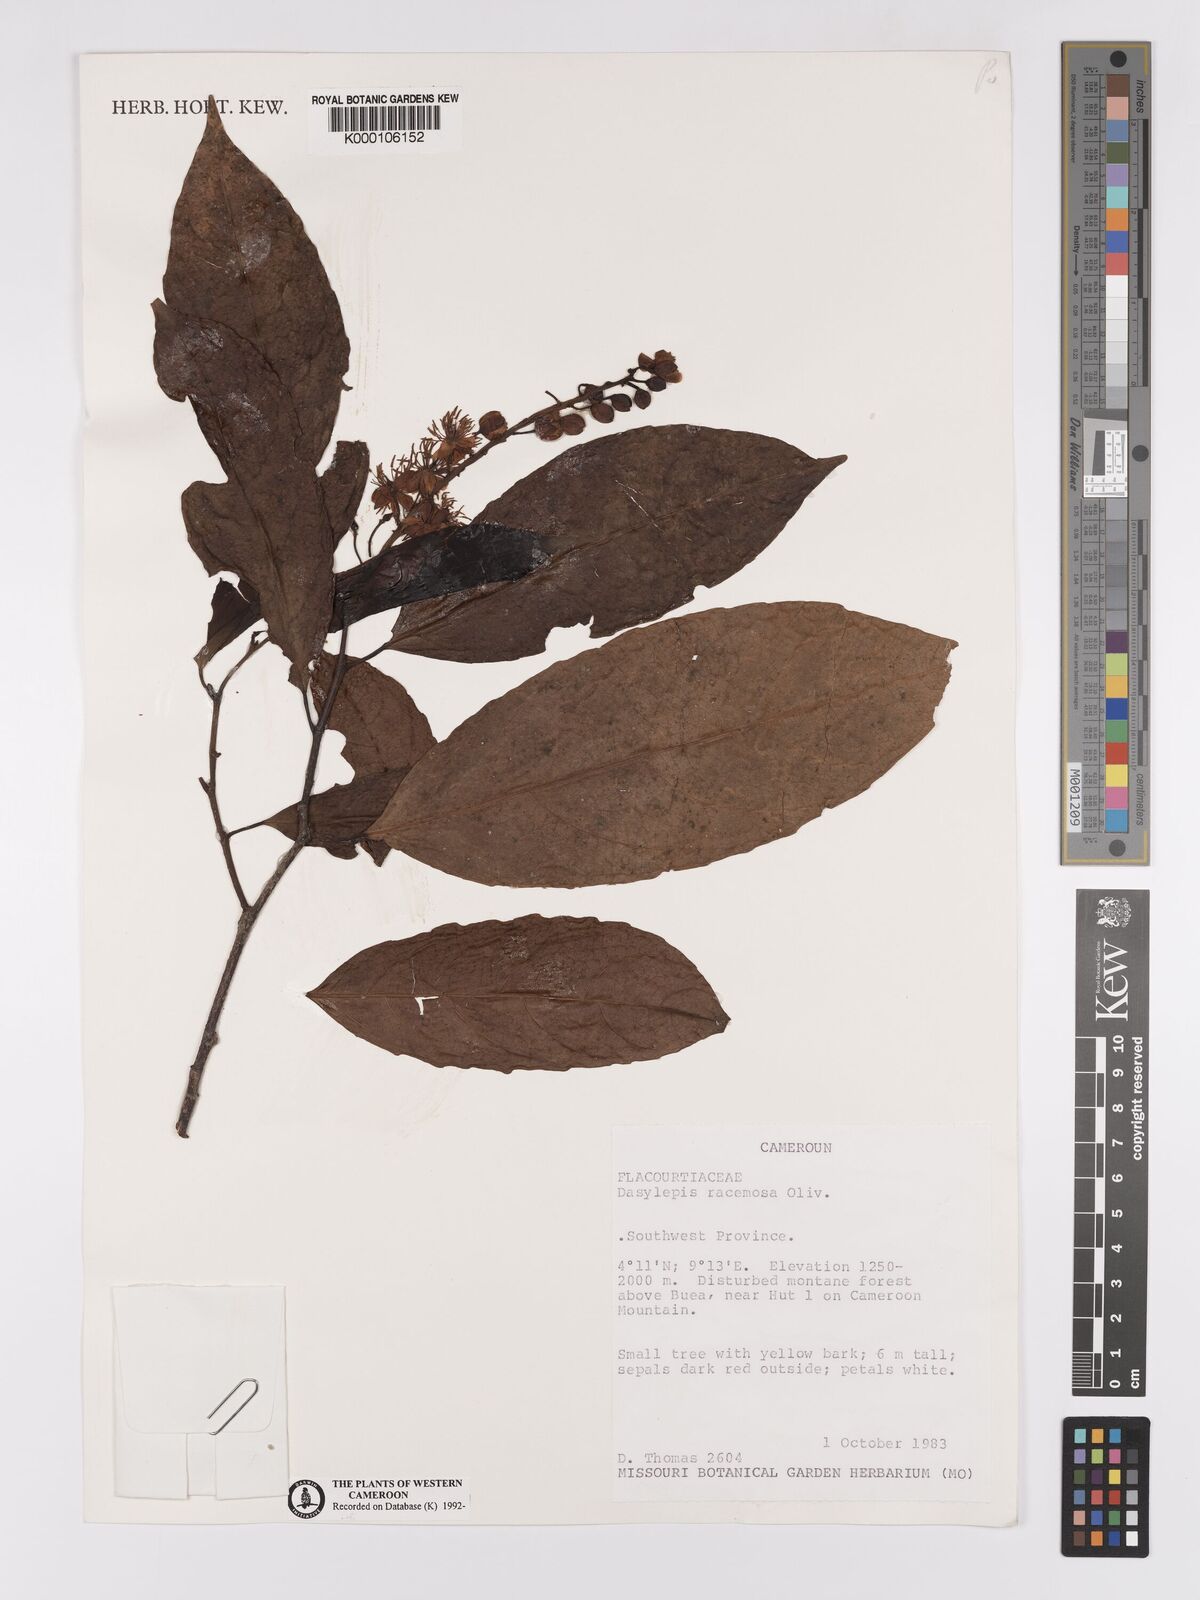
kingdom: Plantae
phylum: Tracheophyta
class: Magnoliopsida
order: Malpighiales
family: Achariaceae
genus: Dasylepis
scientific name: Dasylepis racemosa
